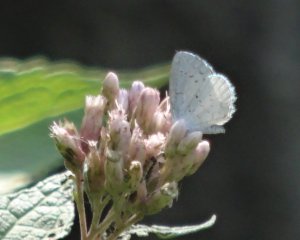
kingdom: Animalia
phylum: Arthropoda
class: Insecta
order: Lepidoptera
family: Lycaenidae
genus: Cyaniris
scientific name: Cyaniris neglecta
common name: Summer Azure
